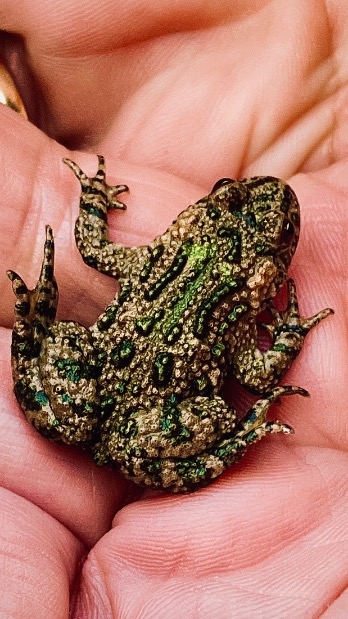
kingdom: Animalia
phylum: Chordata
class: Amphibia
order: Anura
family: Bombinatoridae
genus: Bombina
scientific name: Bombina bombina
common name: Klokkefrø
